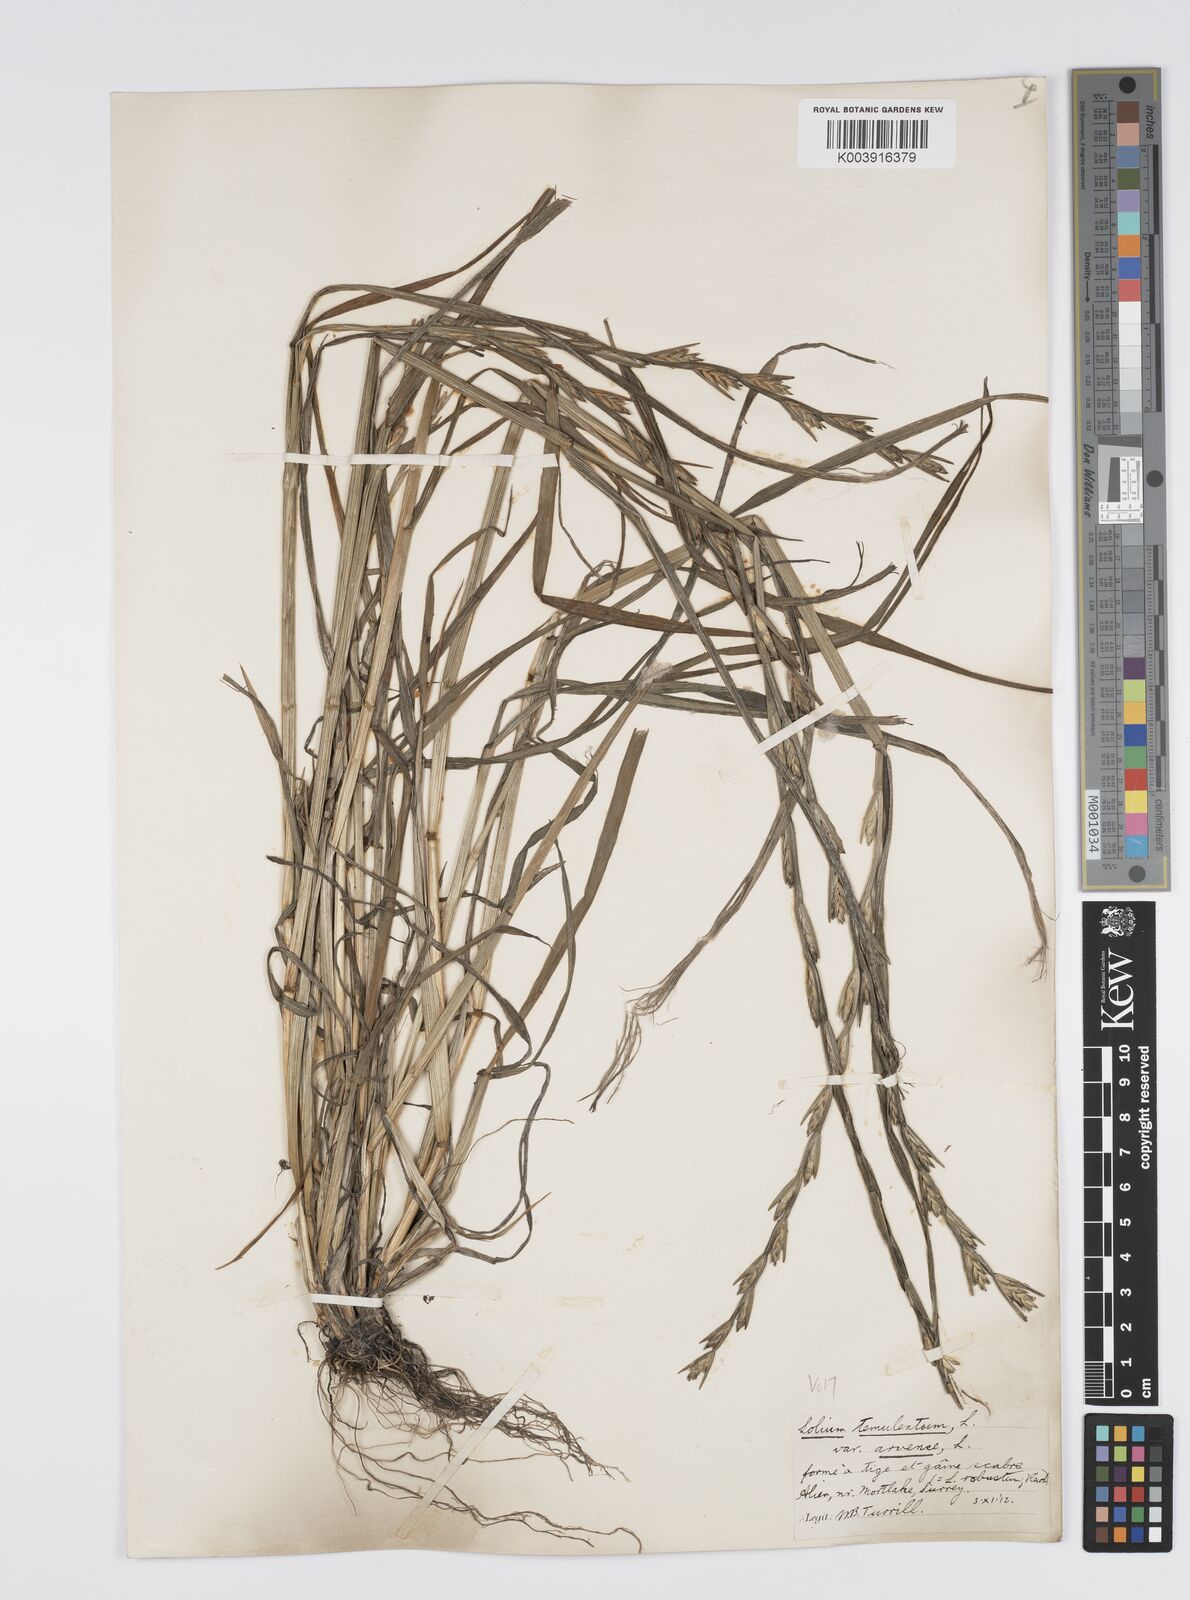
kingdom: Plantae
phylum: Tracheophyta
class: Liliopsida
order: Poales
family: Poaceae
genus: Lolium
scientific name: Lolium temulentum
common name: Darnel
